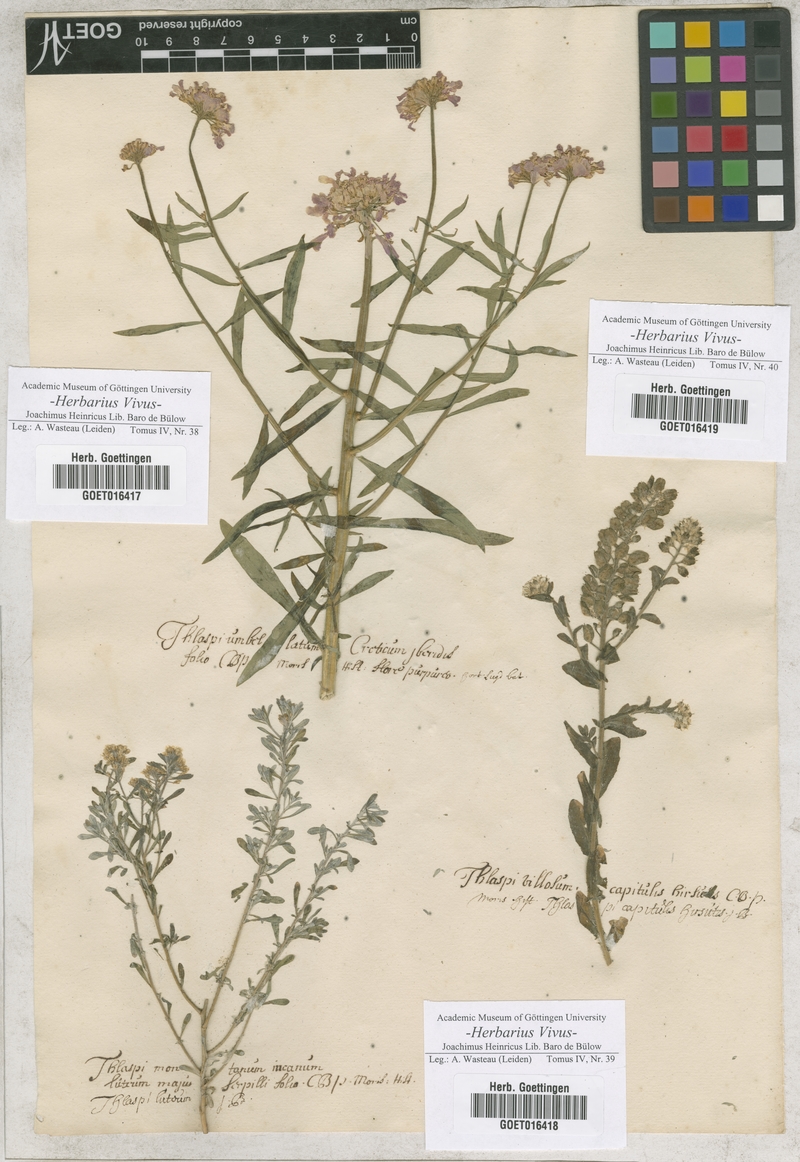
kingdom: Plantae
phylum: Tracheophyta
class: Magnoliopsida
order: Brassicales
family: Brassicaceae
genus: Iberis
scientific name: Iberis umbellata
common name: Globe candytuft
